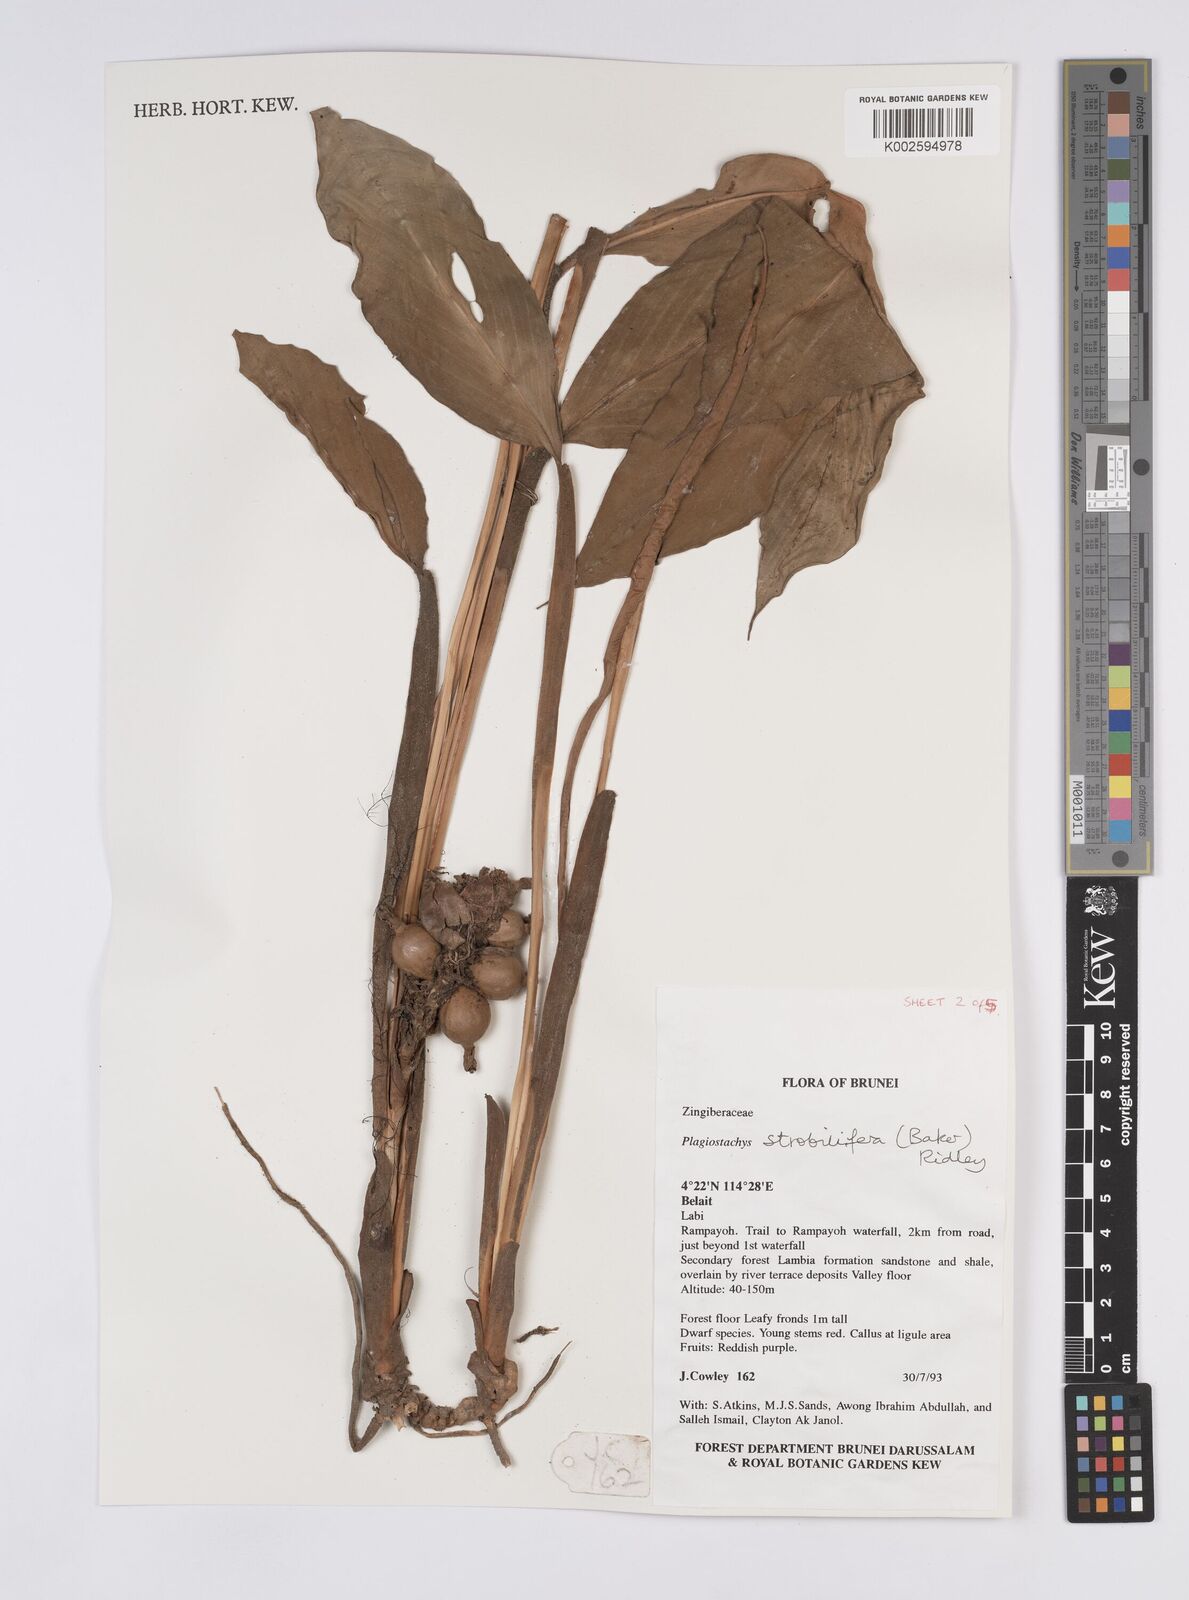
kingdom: Plantae
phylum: Tracheophyta
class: Liliopsida
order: Zingiberales
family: Zingiberaceae
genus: Plagiostachys
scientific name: Plagiostachys strobilifera
